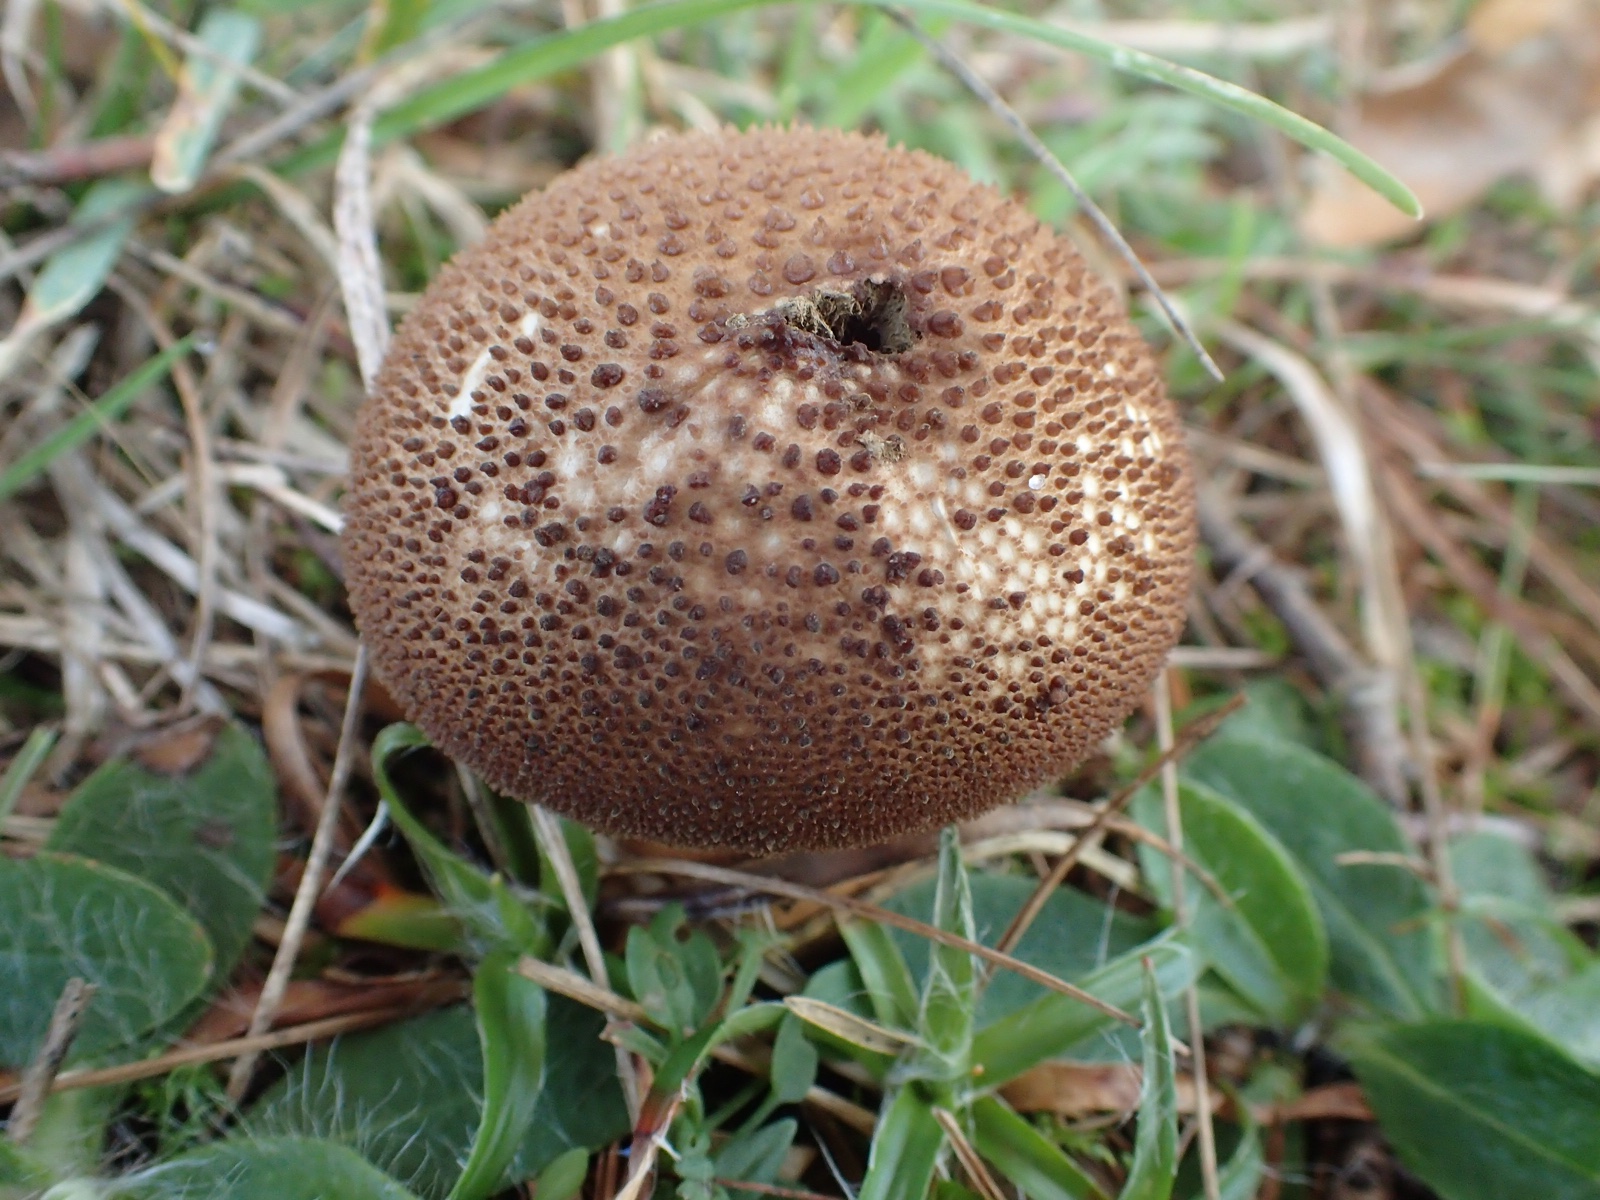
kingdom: Fungi
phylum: Basidiomycota
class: Agaricomycetes
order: Agaricales
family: Lycoperdaceae
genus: Lycoperdon
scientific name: Lycoperdon nigrescens
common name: sortagtig støvbold
